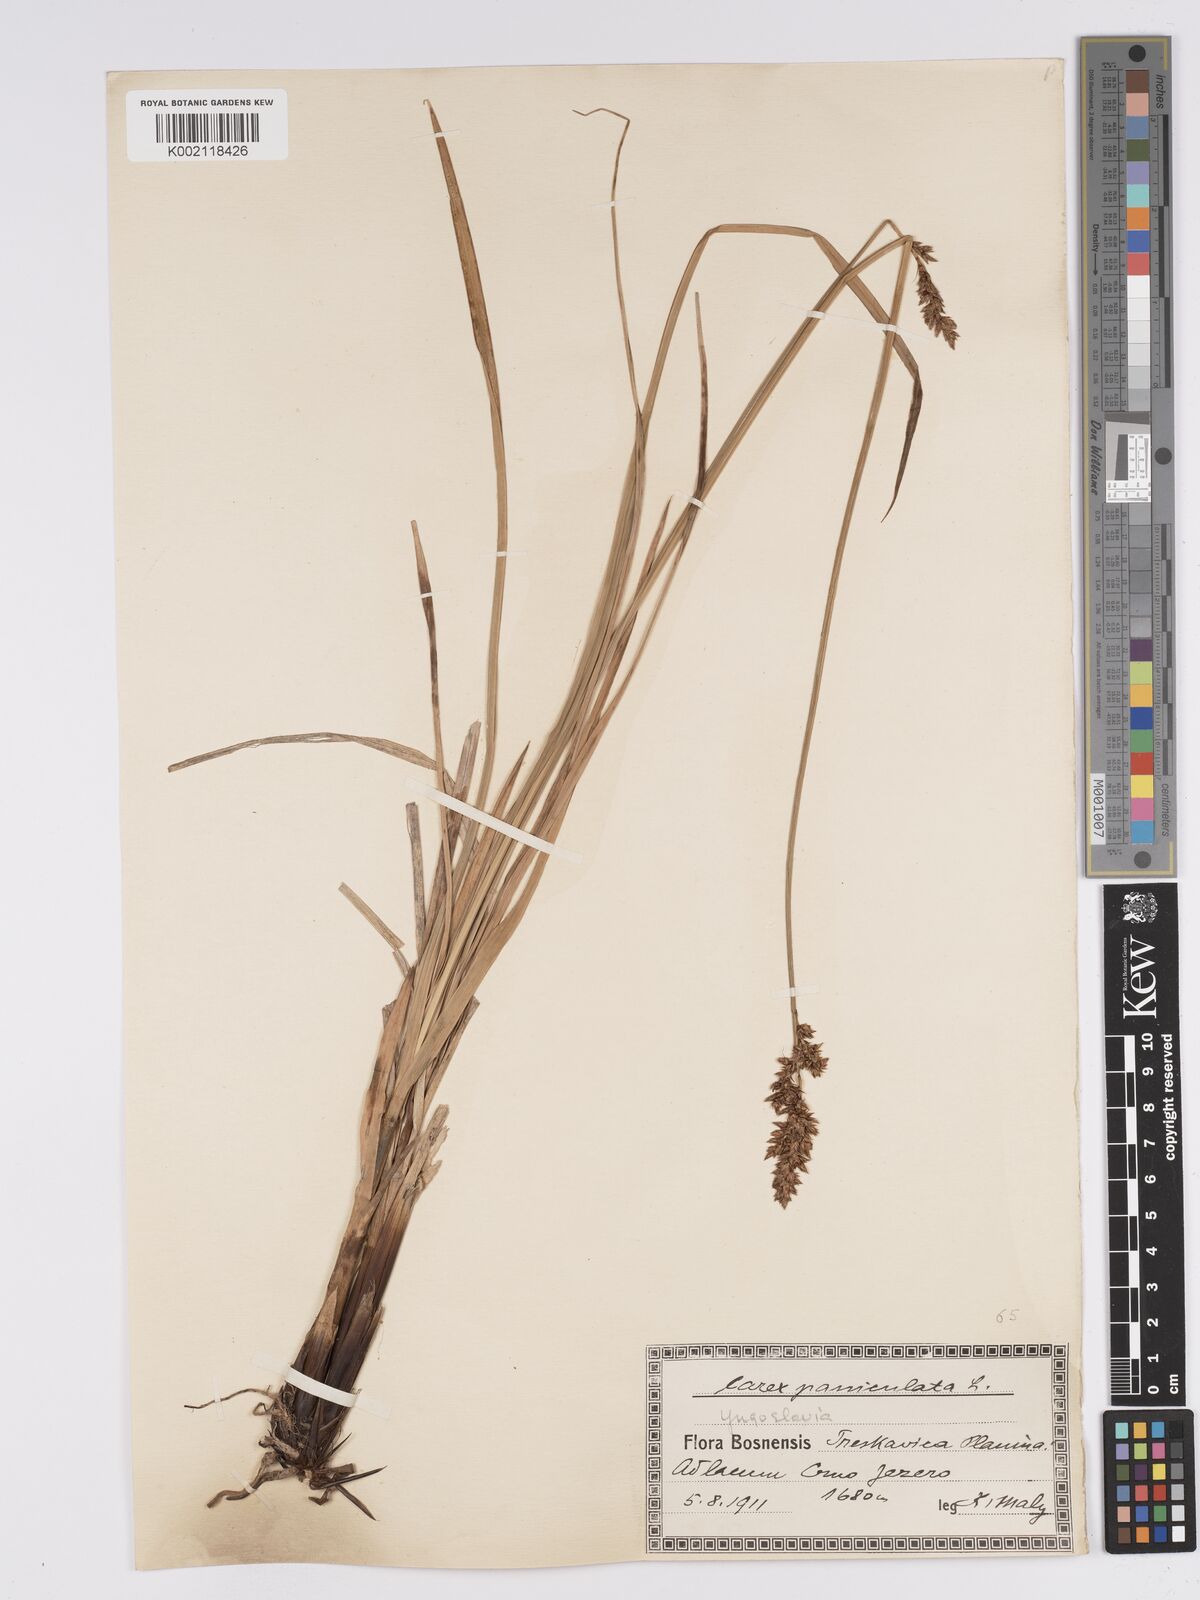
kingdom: Plantae
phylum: Tracheophyta
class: Liliopsida
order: Poales
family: Cyperaceae
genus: Carex
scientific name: Carex paniculata
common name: Greater tussock-sedge
